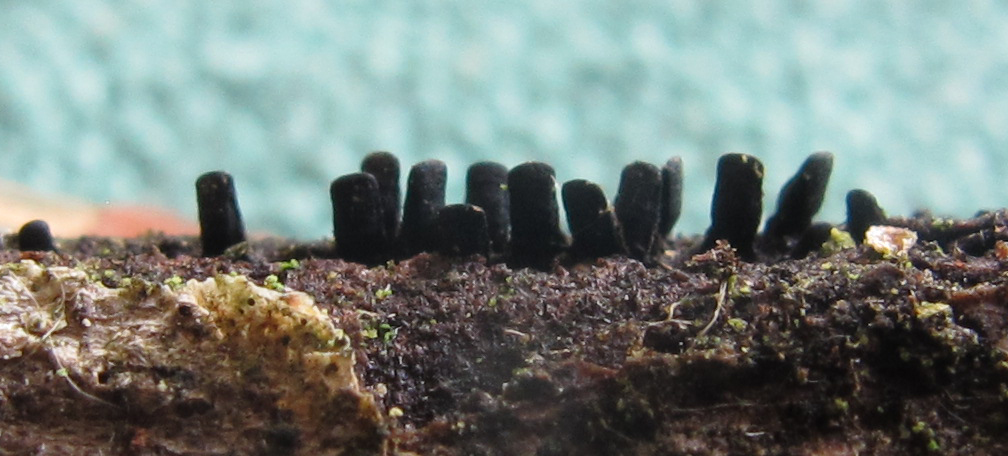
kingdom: Fungi
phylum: Ascomycota
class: Eurotiomycetes
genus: Glyphium
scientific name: Glyphium elatum
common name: kuløkse
